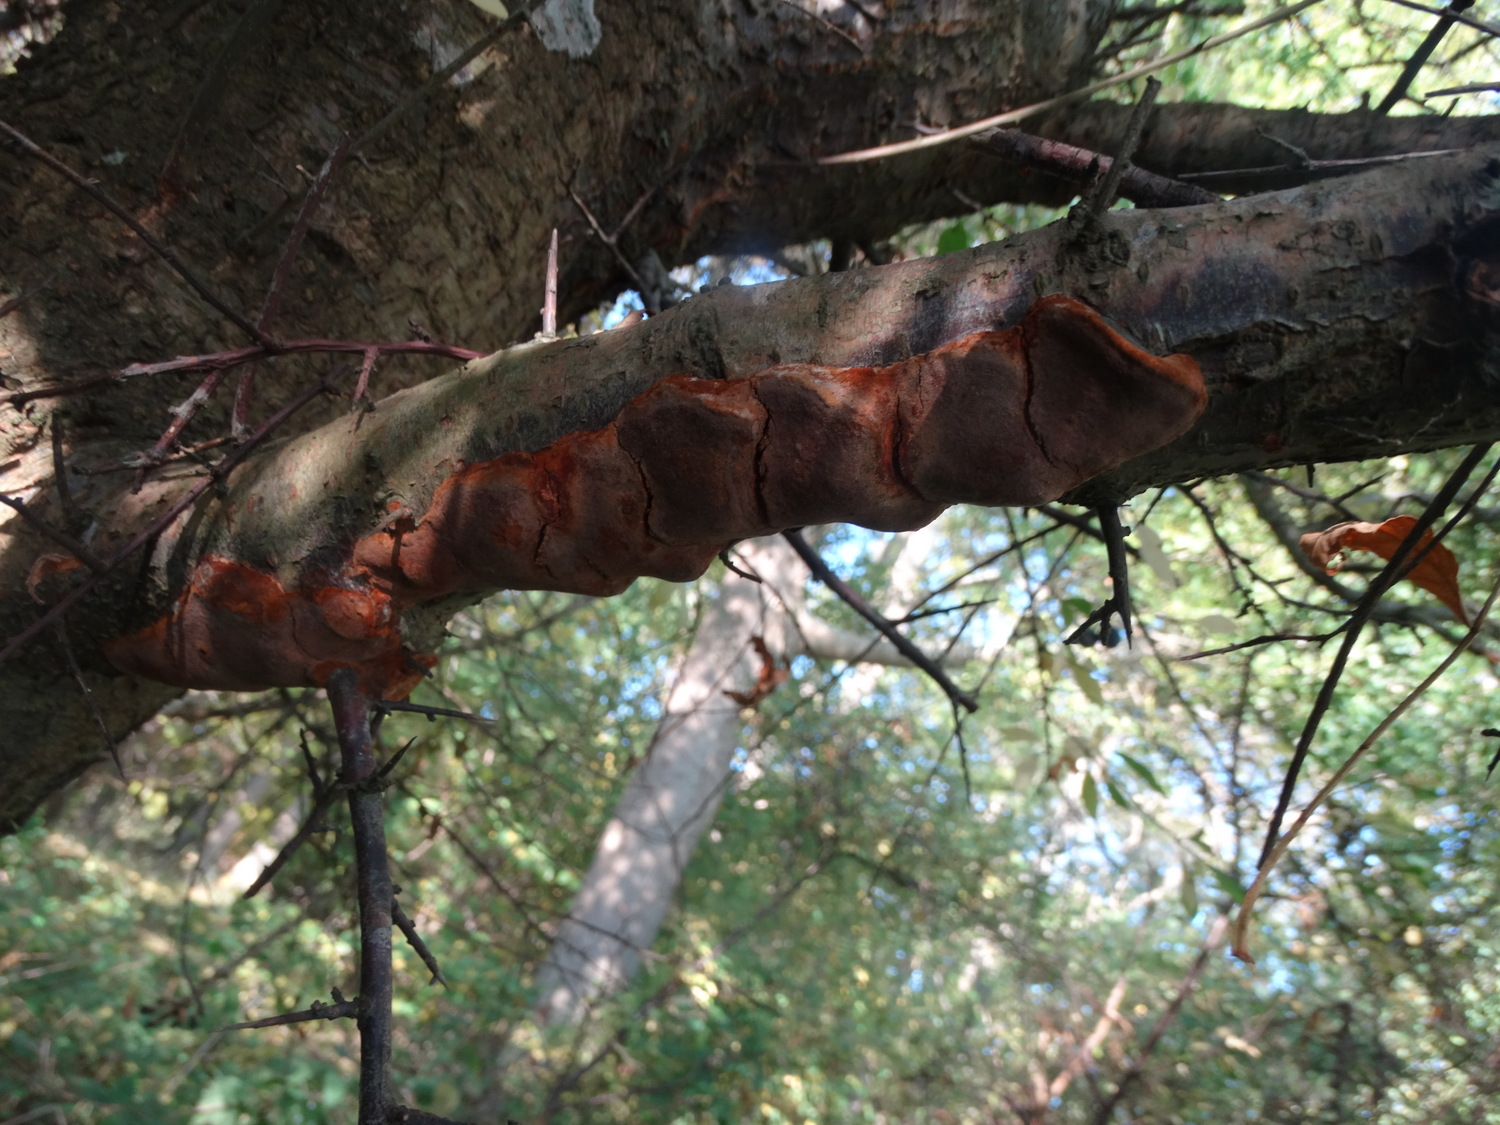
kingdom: Fungi
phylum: Basidiomycota
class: Agaricomycetes
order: Hymenochaetales
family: Hymenochaetaceae
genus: Phellinus
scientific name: Phellinus pomaceus
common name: blomme-ildporesvamp
